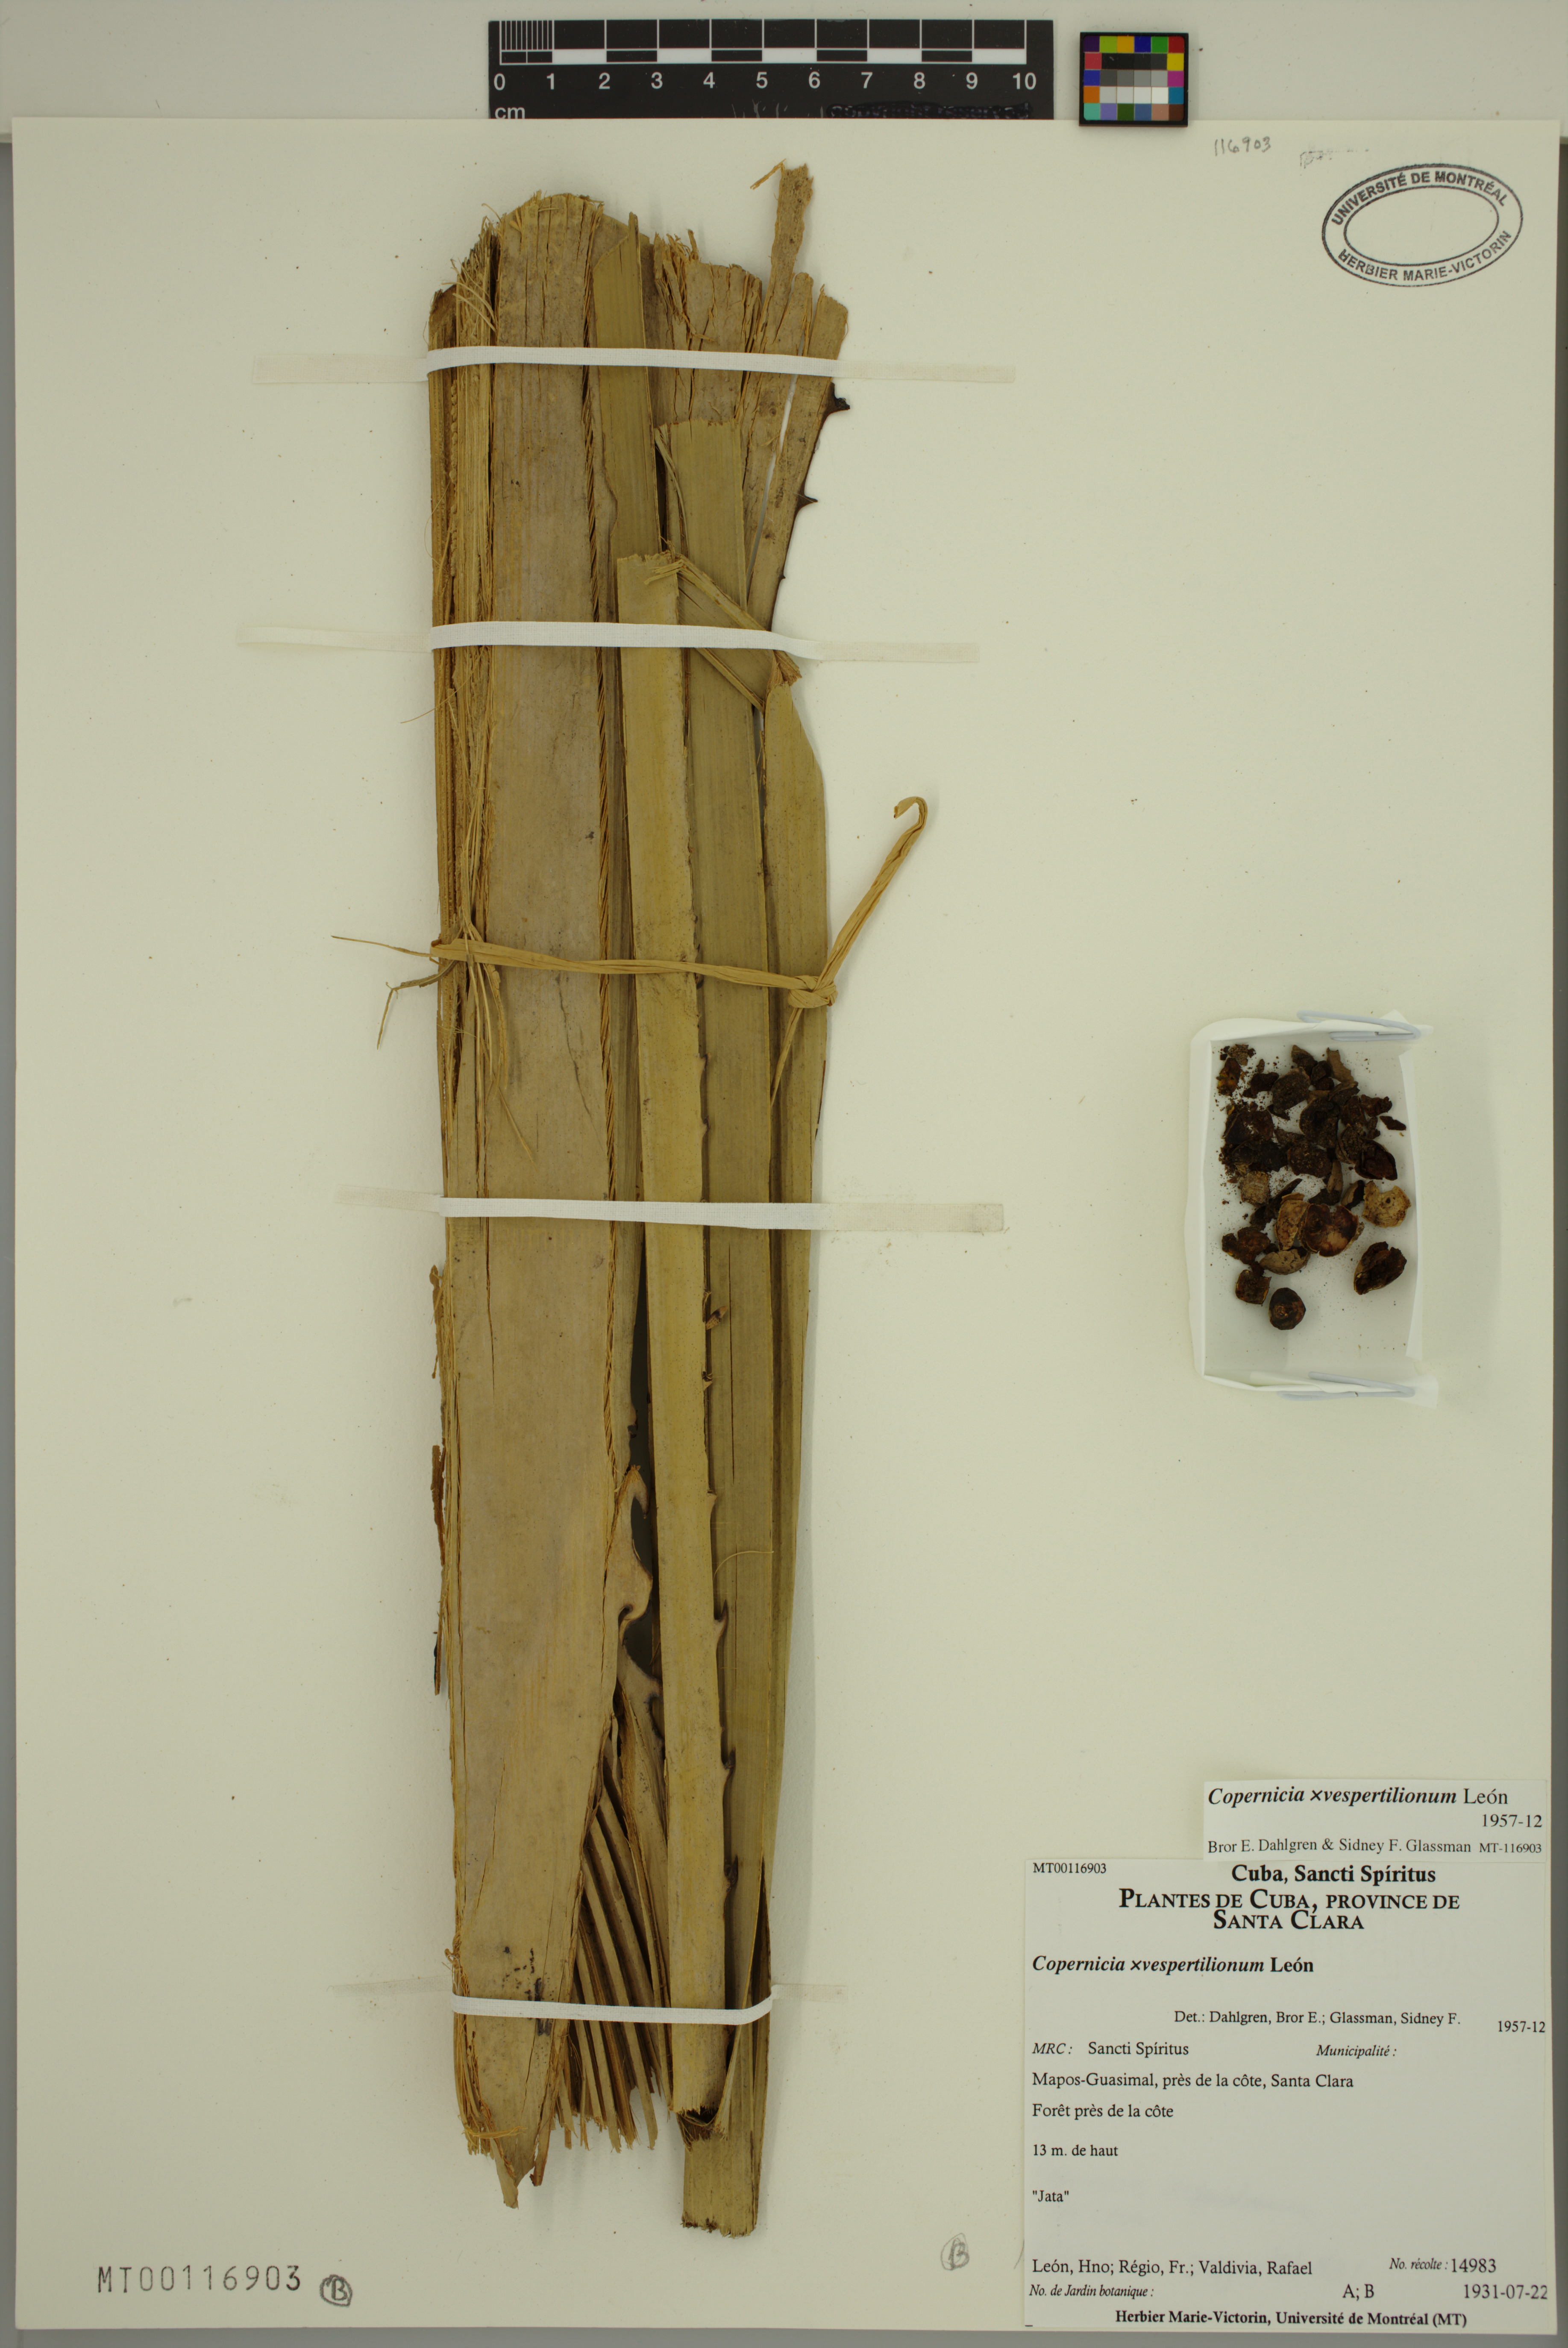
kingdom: Plantae
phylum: Tracheophyta
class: Liliopsida
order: Arecales
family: Arecaceae
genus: Copernicia
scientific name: Copernicia vespertilionum
